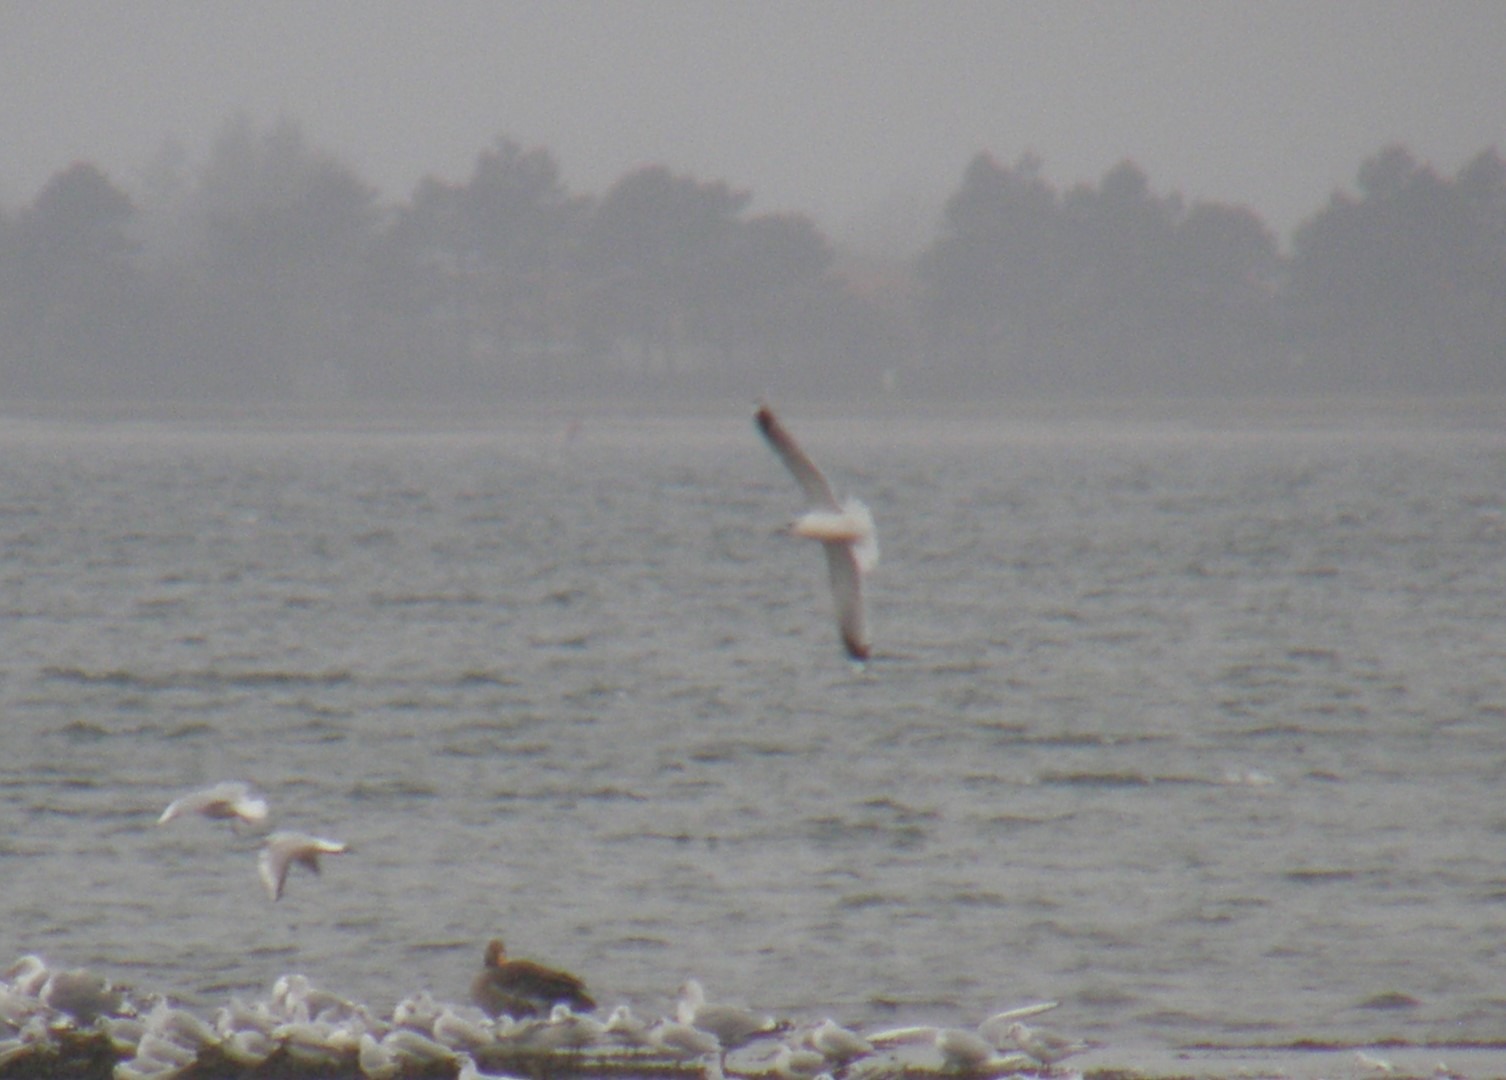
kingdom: Animalia
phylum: Chordata
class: Aves
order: Charadriiformes
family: Laridae
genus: Larus
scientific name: Larus canus
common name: Stormmåge
